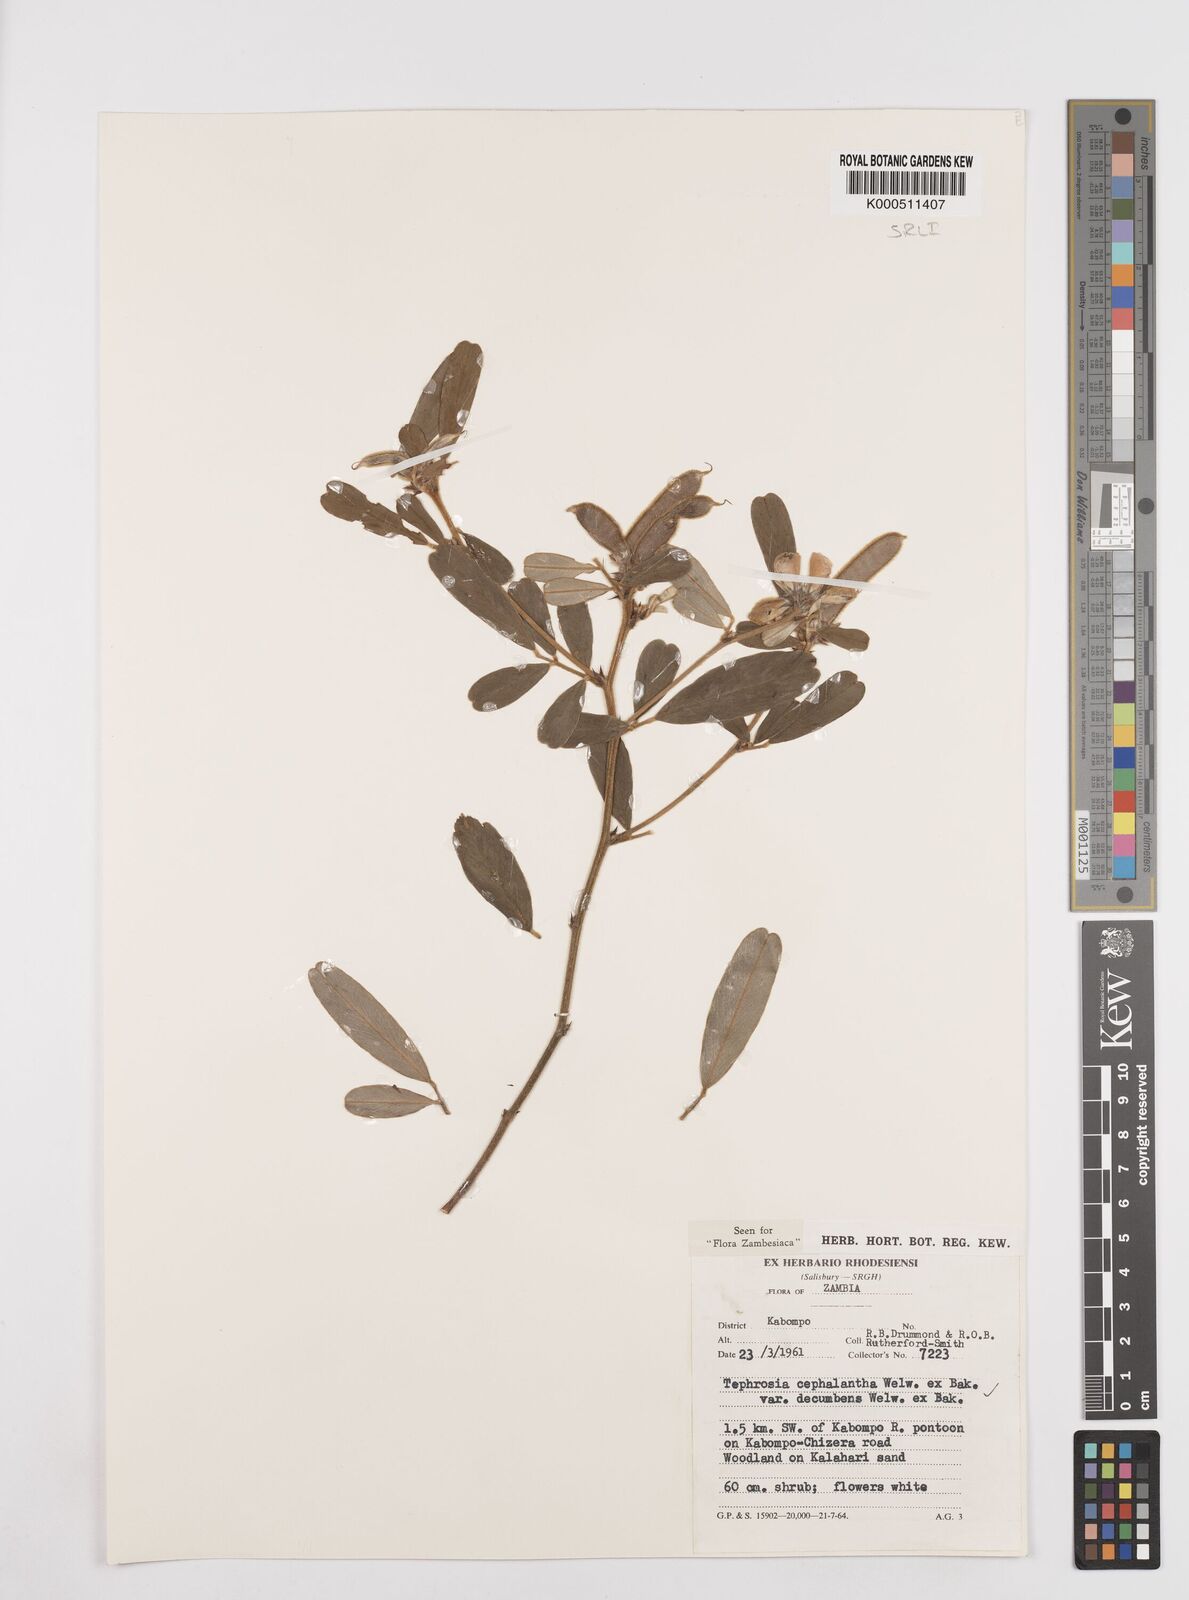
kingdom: Plantae
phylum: Tracheophyta
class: Magnoliopsida
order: Fabales
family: Fabaceae
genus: Tephrosia
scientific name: Tephrosia
